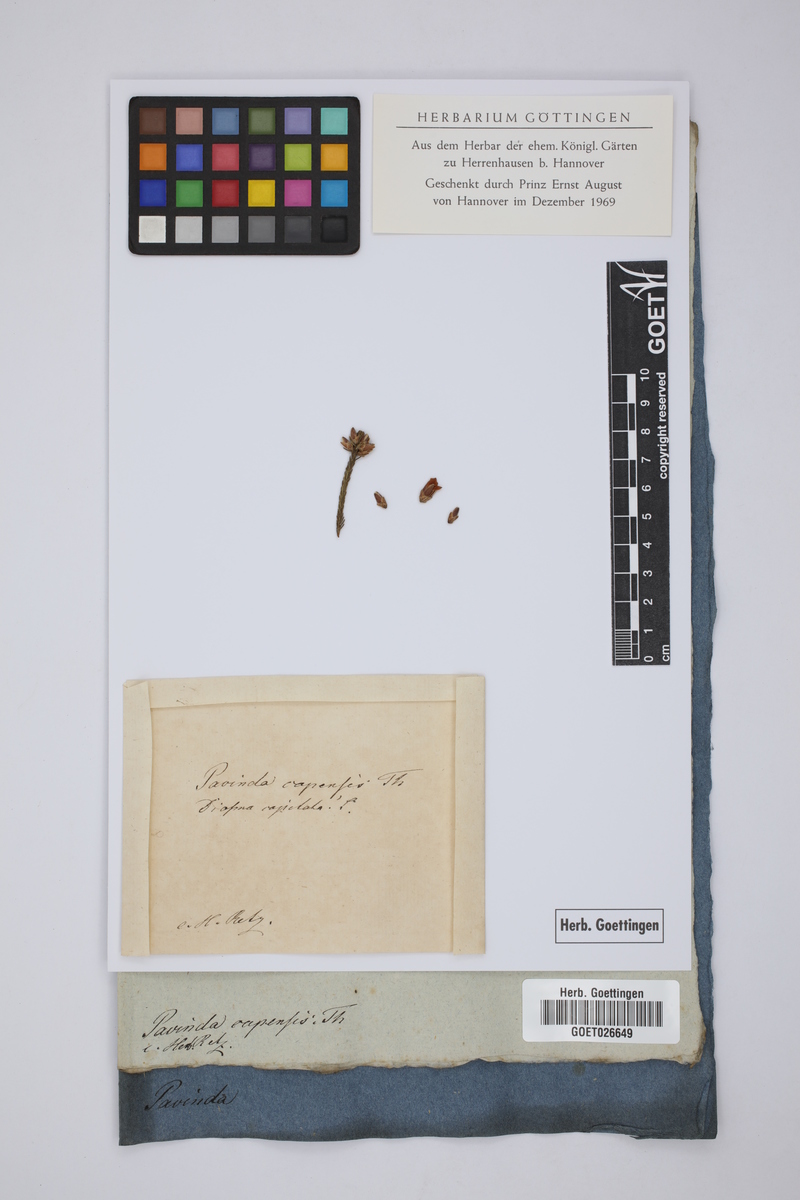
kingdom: Plantae
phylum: Tracheophyta
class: Magnoliopsida
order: Bruniales
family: Bruniaceae
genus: Audouinia
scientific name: Audouinia capitata
